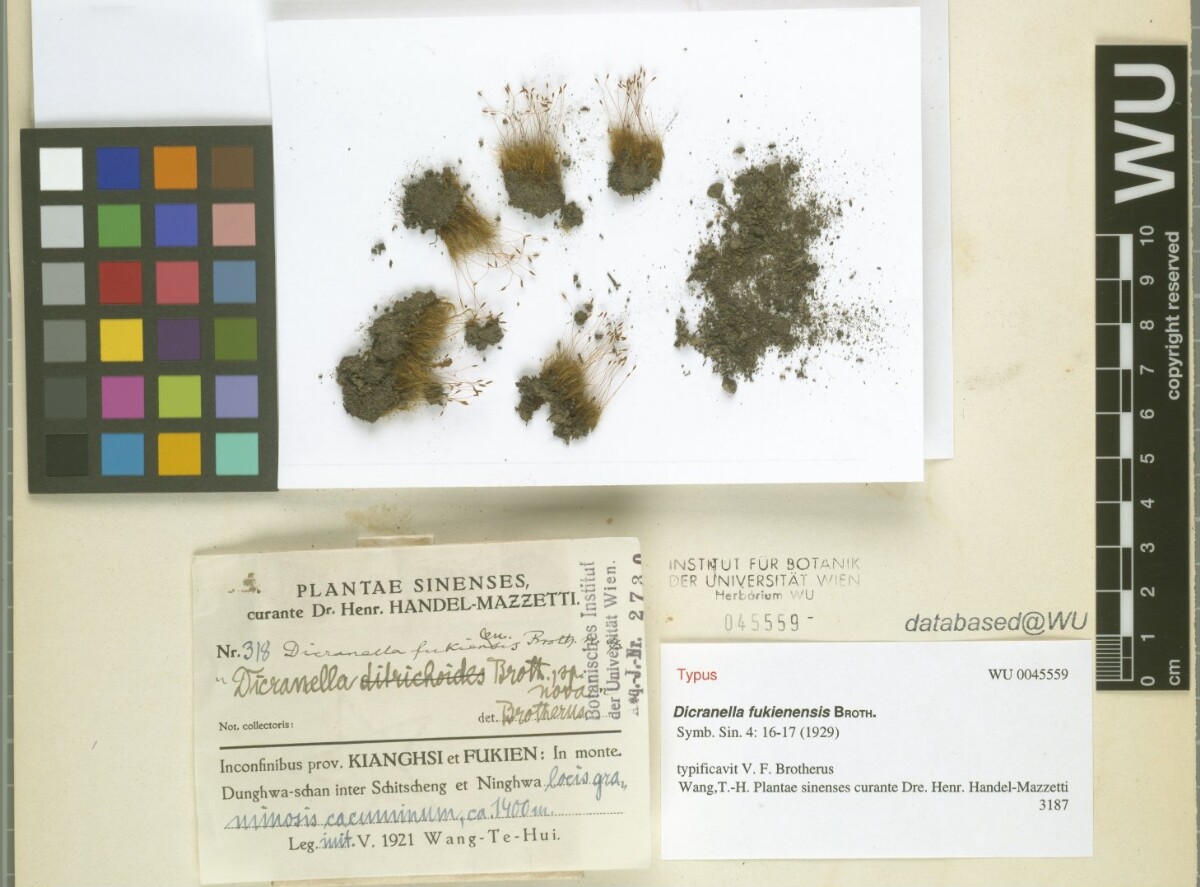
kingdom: Plantae
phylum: Bryophyta
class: Bryopsida
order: Dicranales
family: Dicranellaceae
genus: Dicranella
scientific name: Dicranella fukienensis
